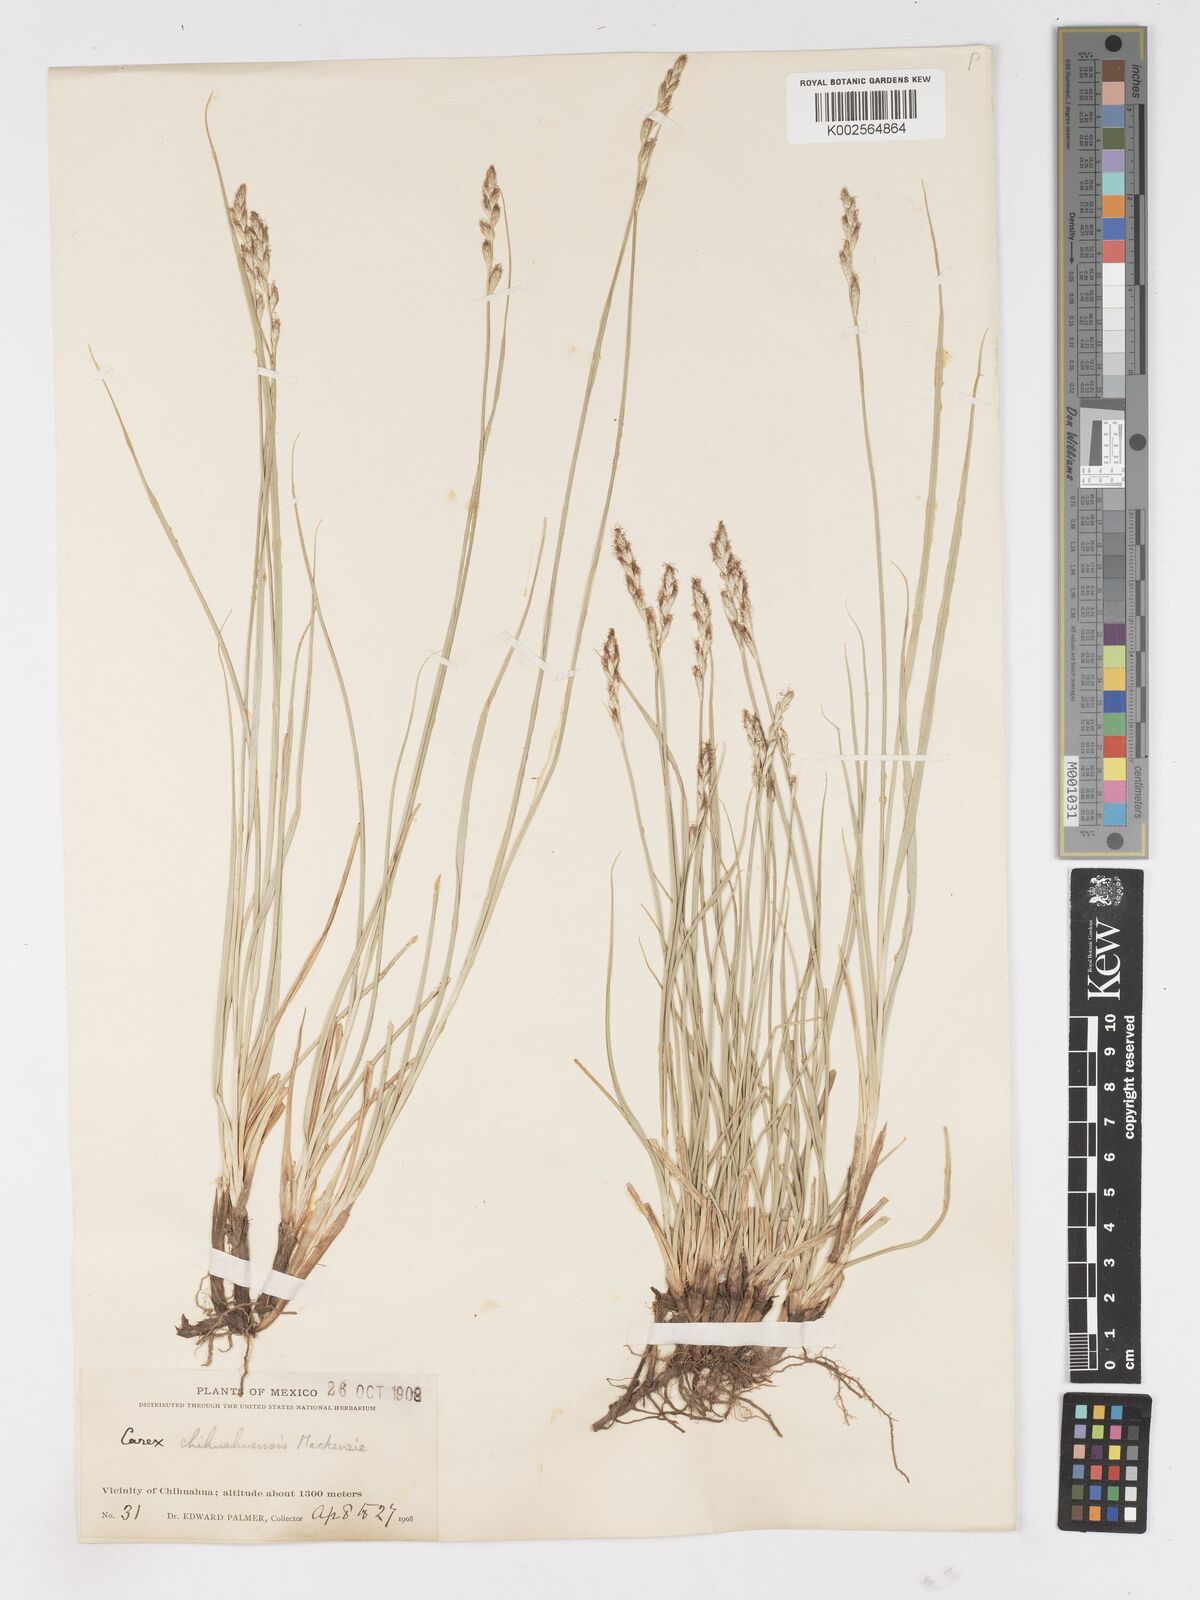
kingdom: Plantae
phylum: Tracheophyta
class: Liliopsida
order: Poales
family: Cyperaceae
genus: Carex
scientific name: Carex chihuahuensis
